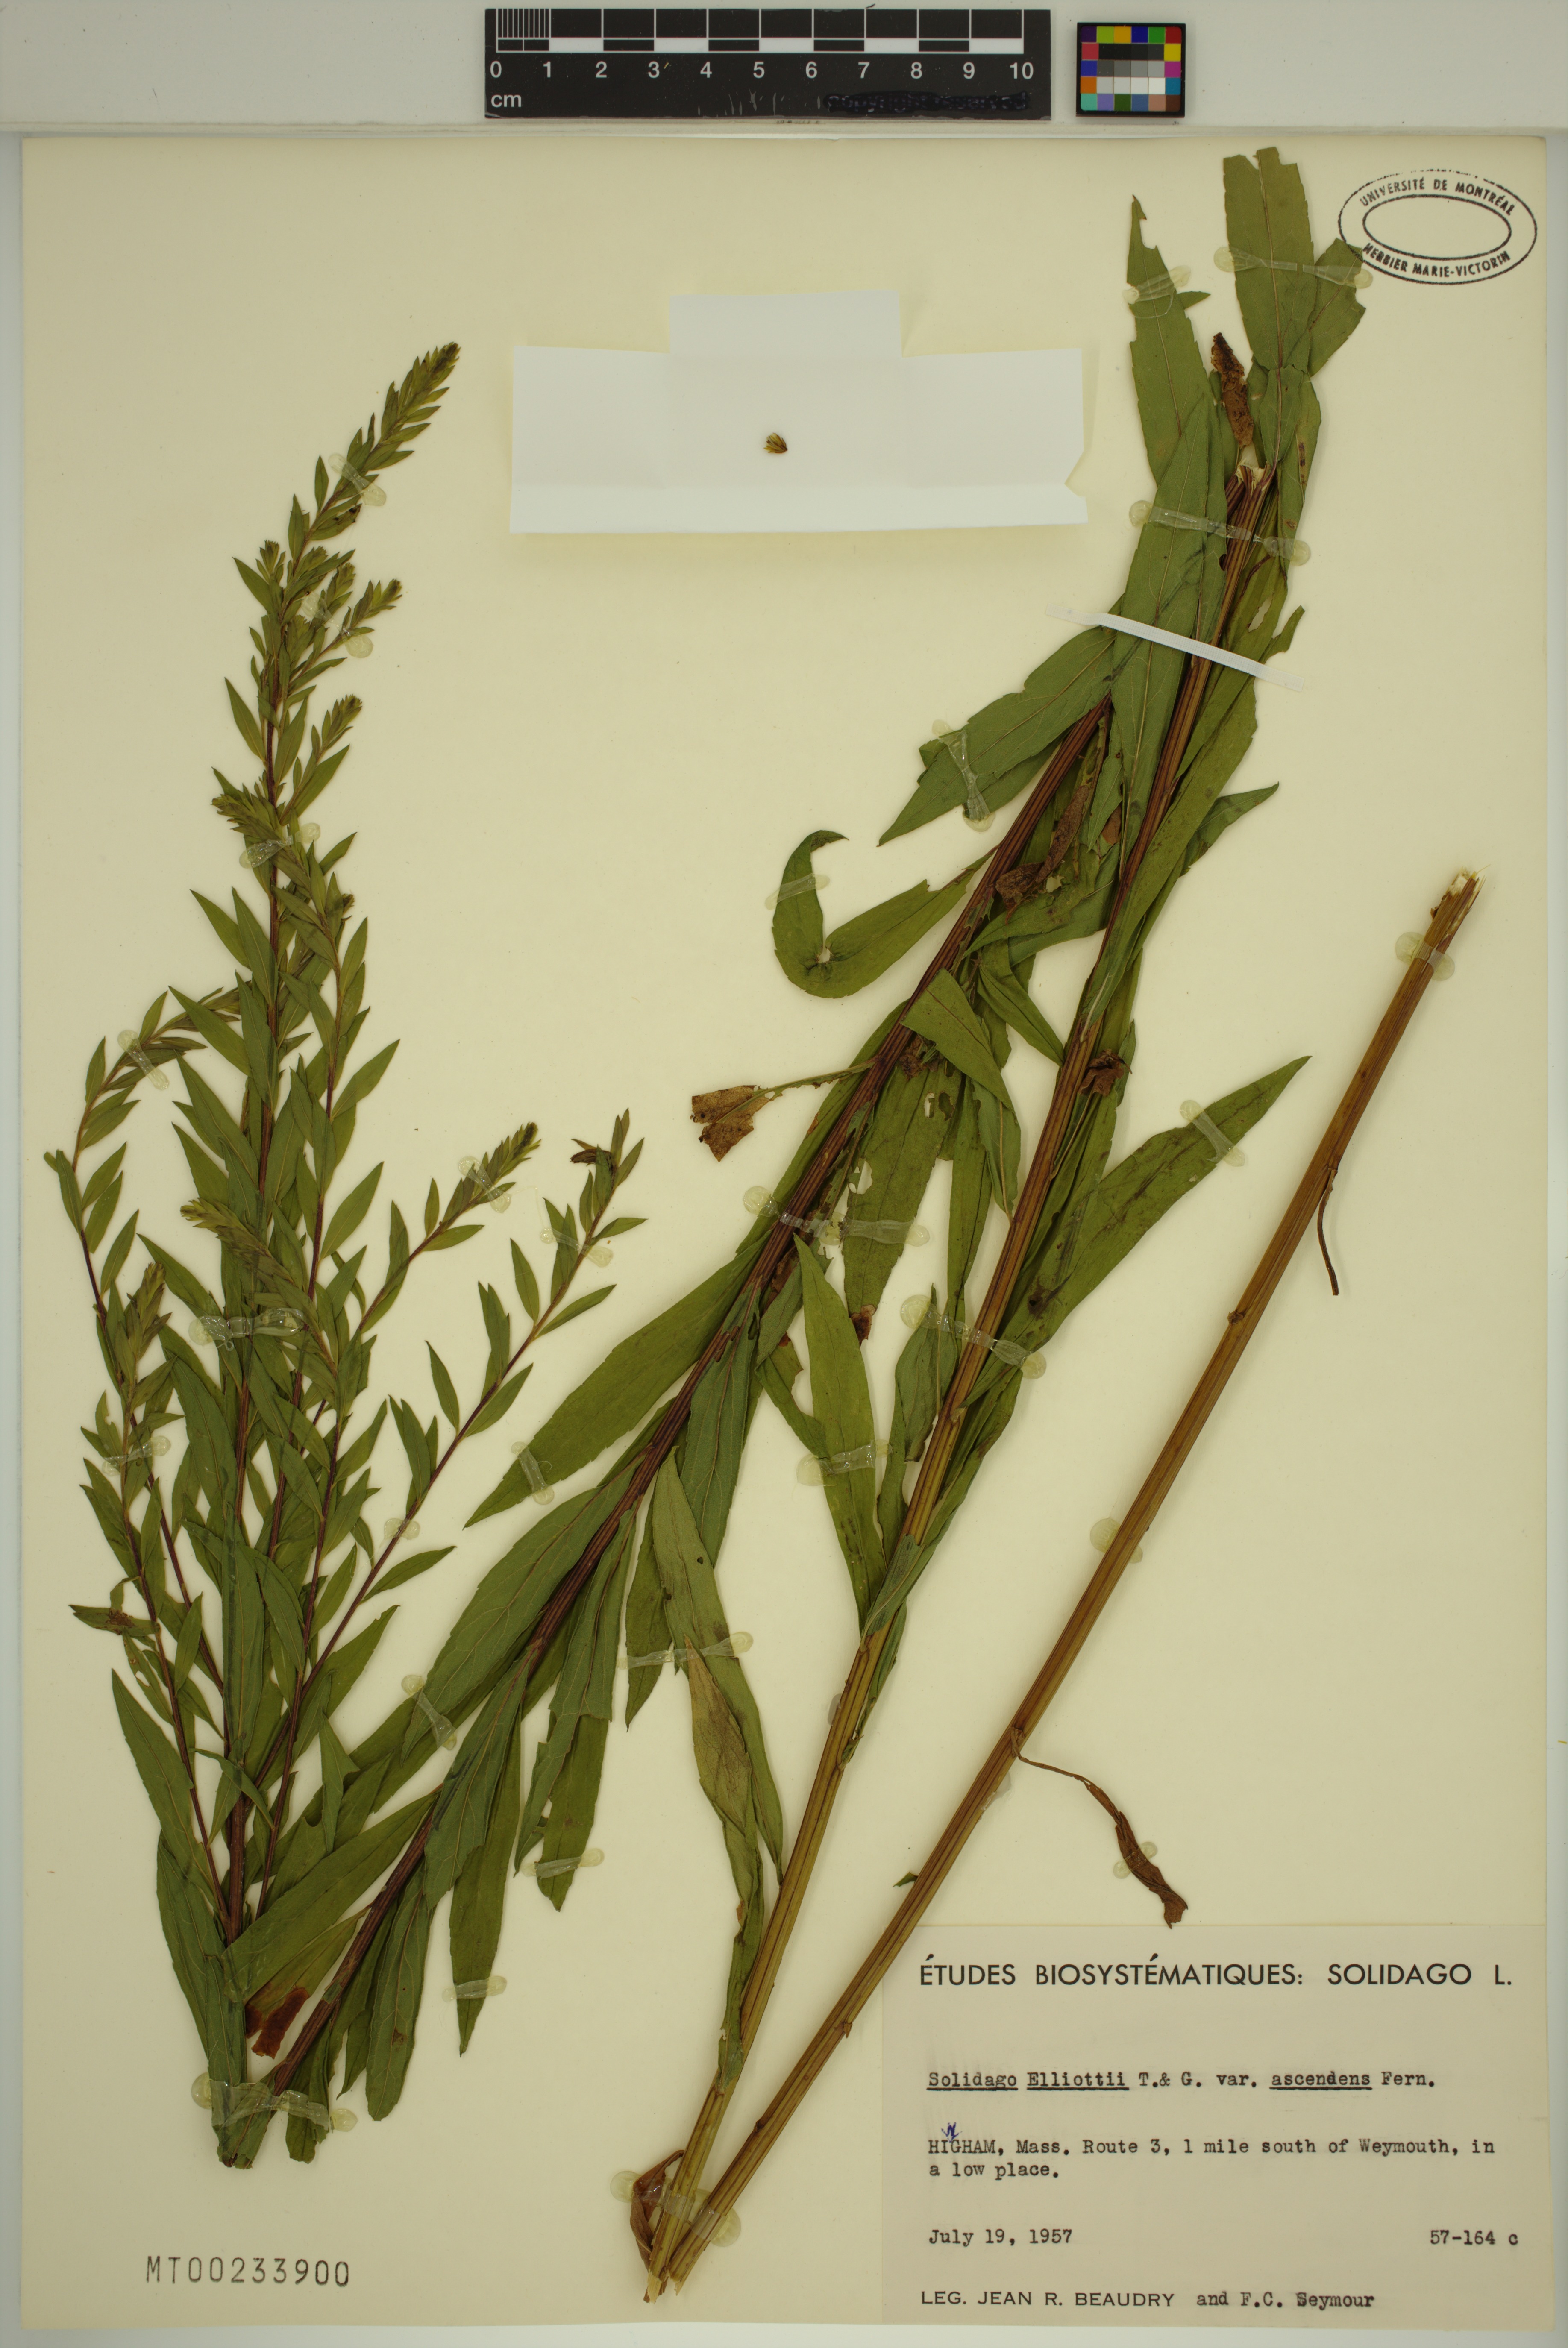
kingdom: Plantae
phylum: Tracheophyta
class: Magnoliopsida
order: Asterales
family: Asteraceae
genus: Solidago
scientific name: Solidago latissimifolia
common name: Elliott's goldenrod
